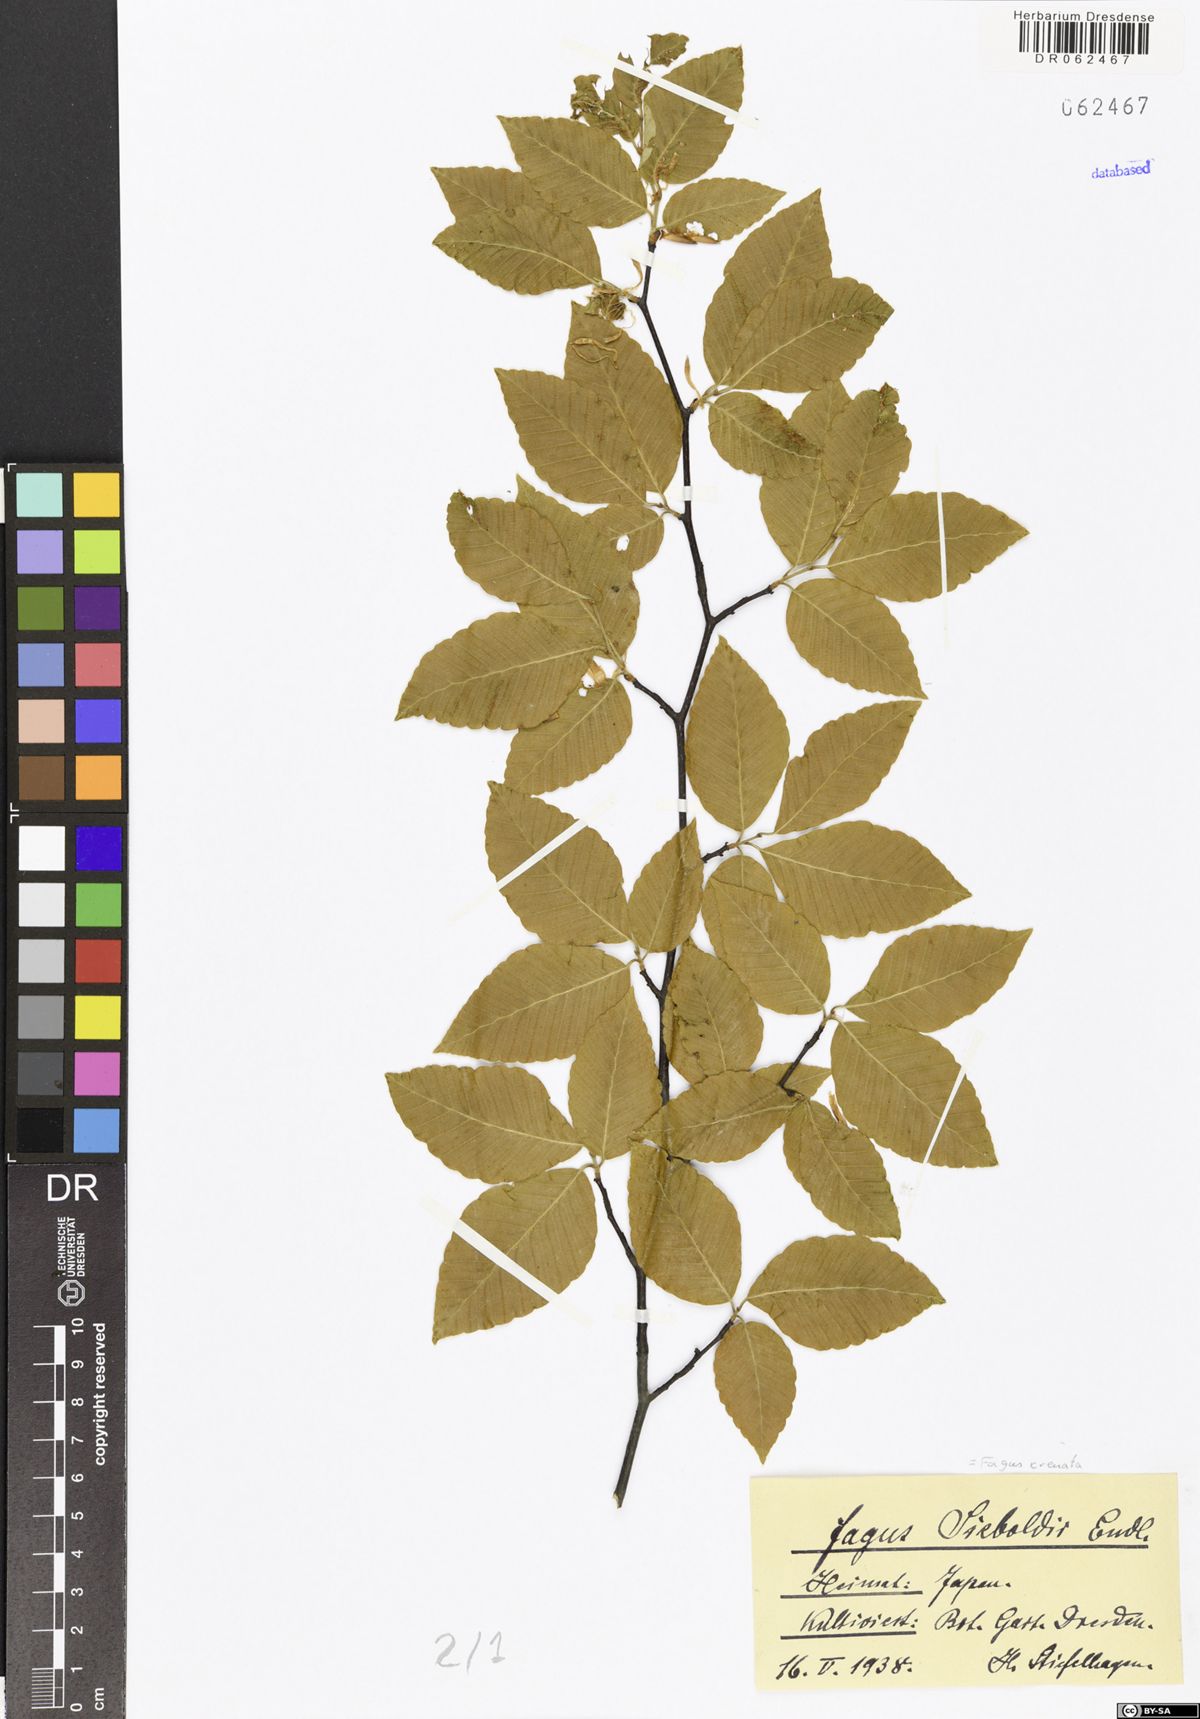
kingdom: Plantae
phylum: Tracheophyta
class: Magnoliopsida
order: Fagales
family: Fagaceae
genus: Fagus
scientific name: Fagus crenata
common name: Japanese beech
